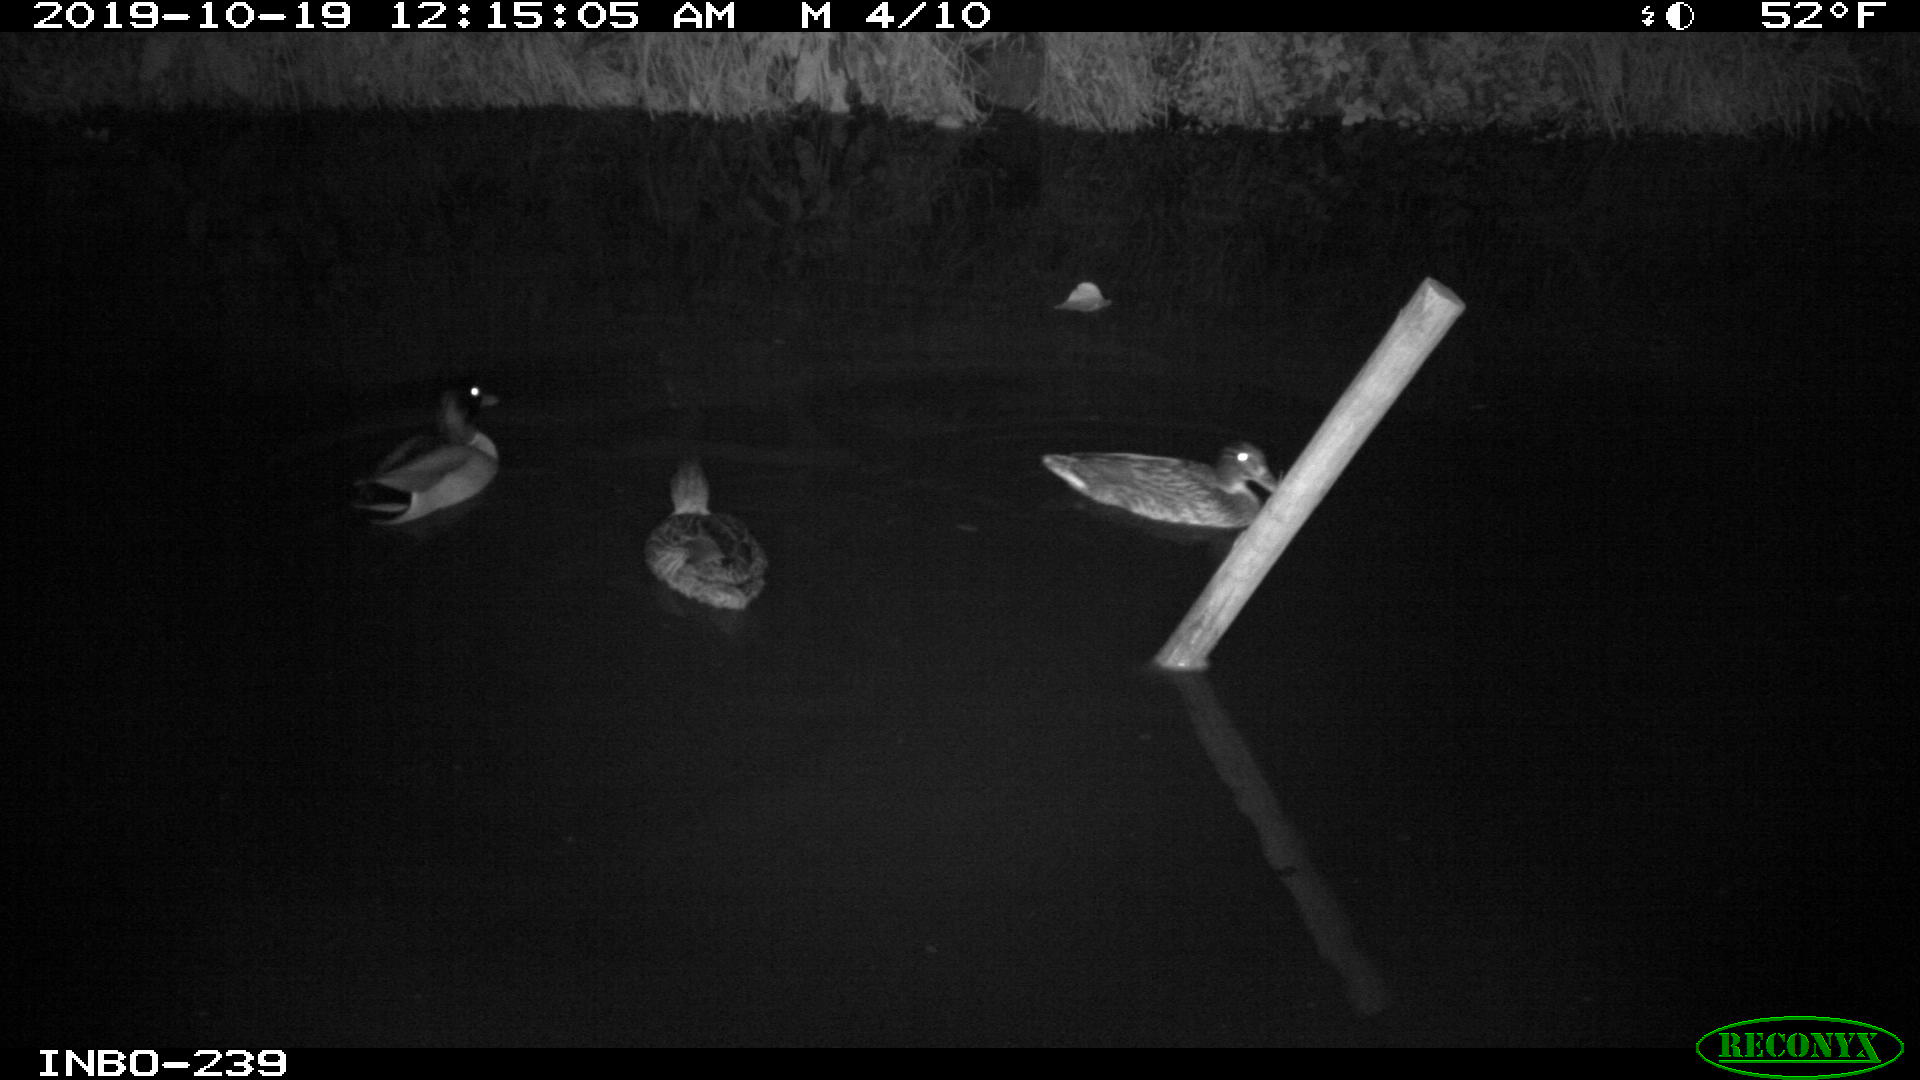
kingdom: Animalia
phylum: Chordata
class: Aves
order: Anseriformes
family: Anatidae
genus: Anas
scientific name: Anas platyrhynchos
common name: Mallard
